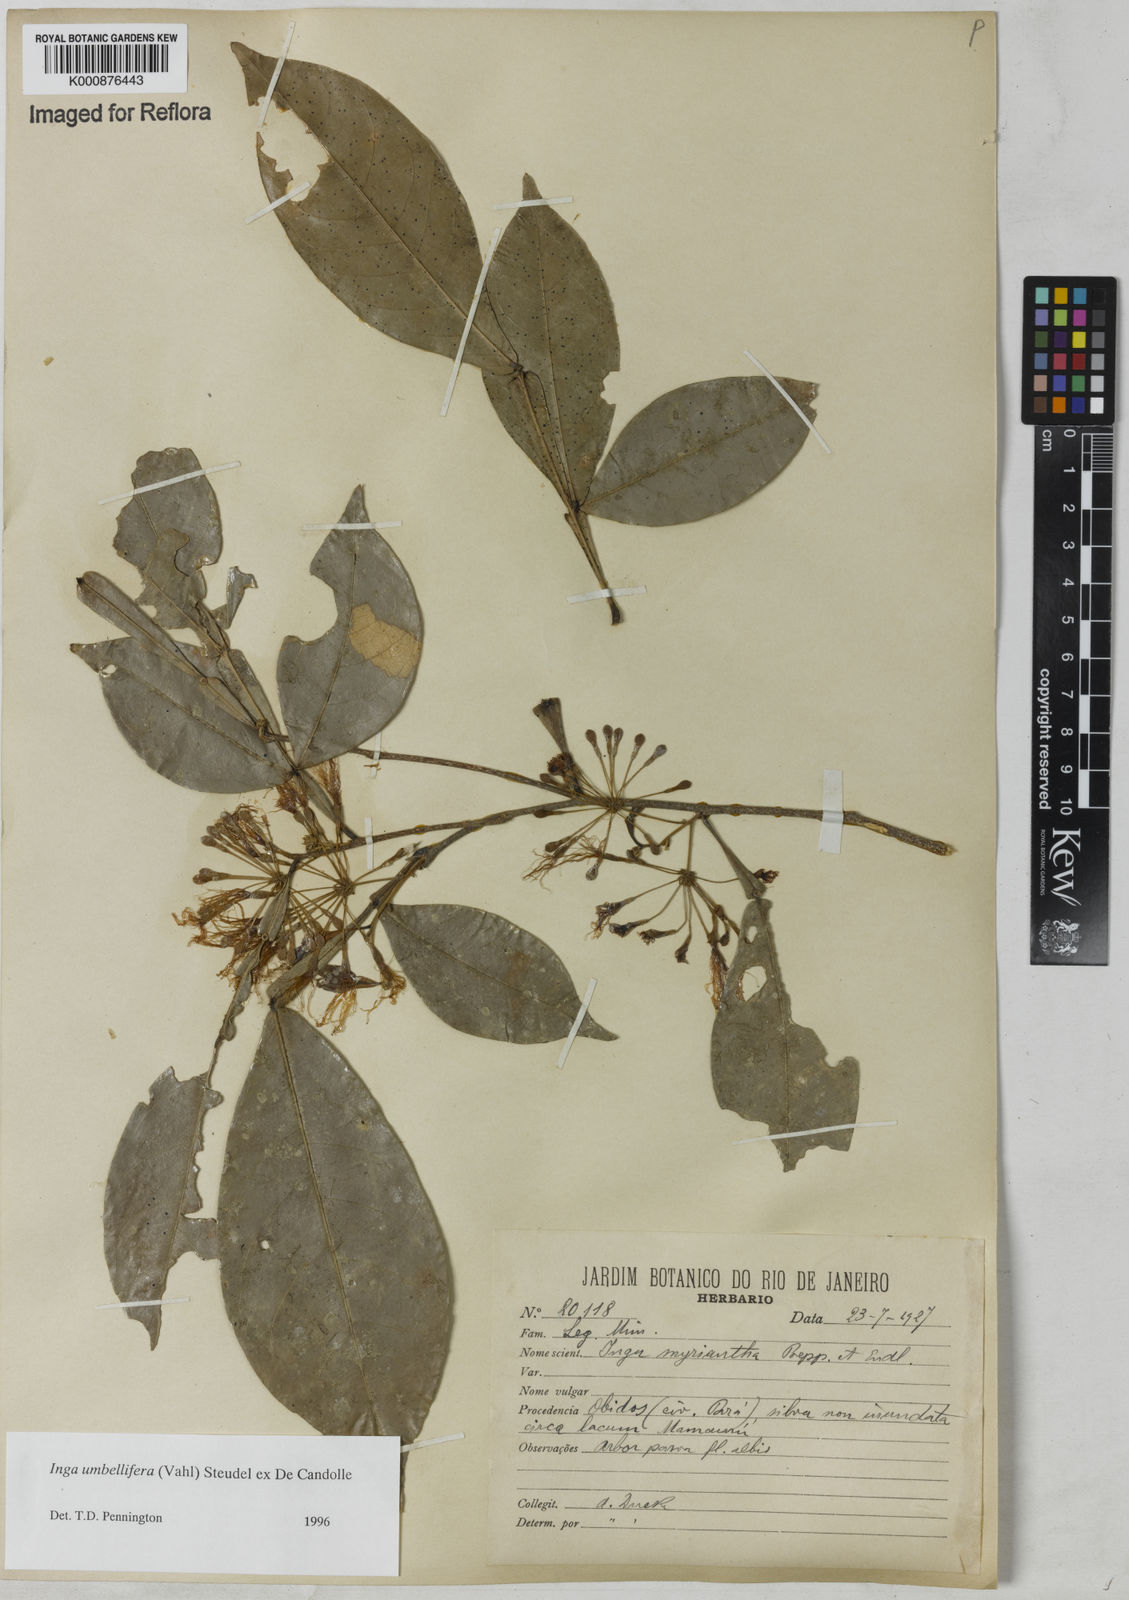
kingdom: Plantae
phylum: Tracheophyta
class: Magnoliopsida
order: Fabales
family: Fabaceae
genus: Inga
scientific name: Inga umbellifera
